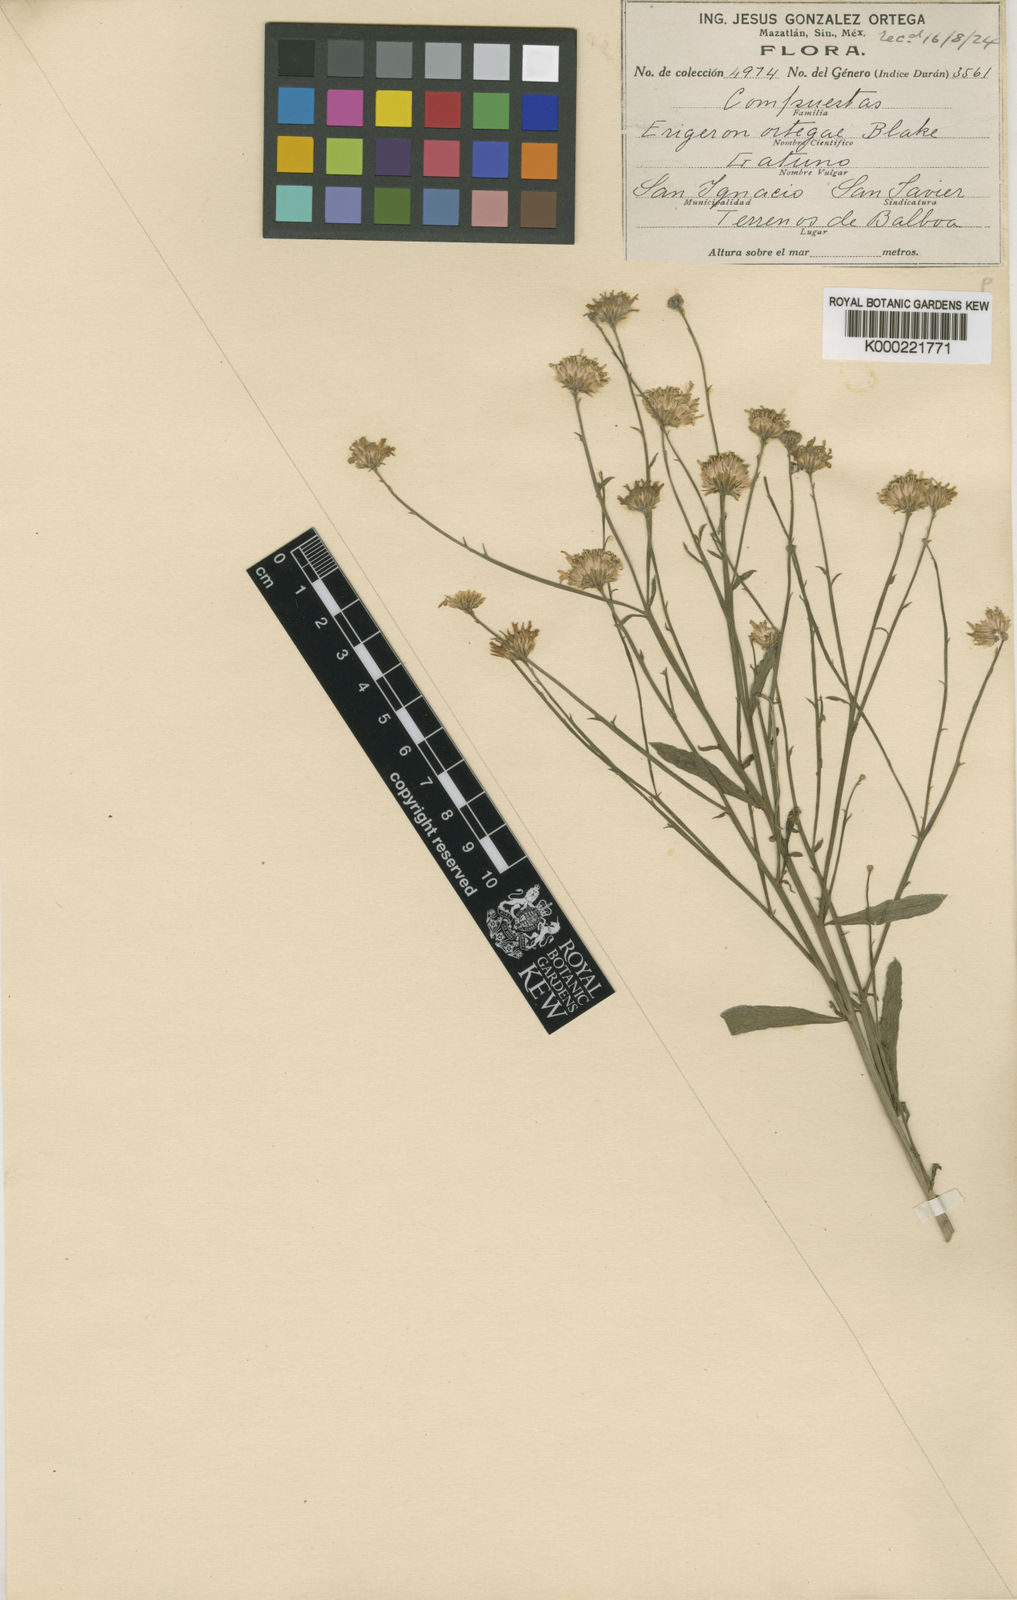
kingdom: Plantae
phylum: Tracheophyta
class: Magnoliopsida
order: Asterales
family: Asteraceae
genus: Chloracantha
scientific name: Chloracantha ortegae
